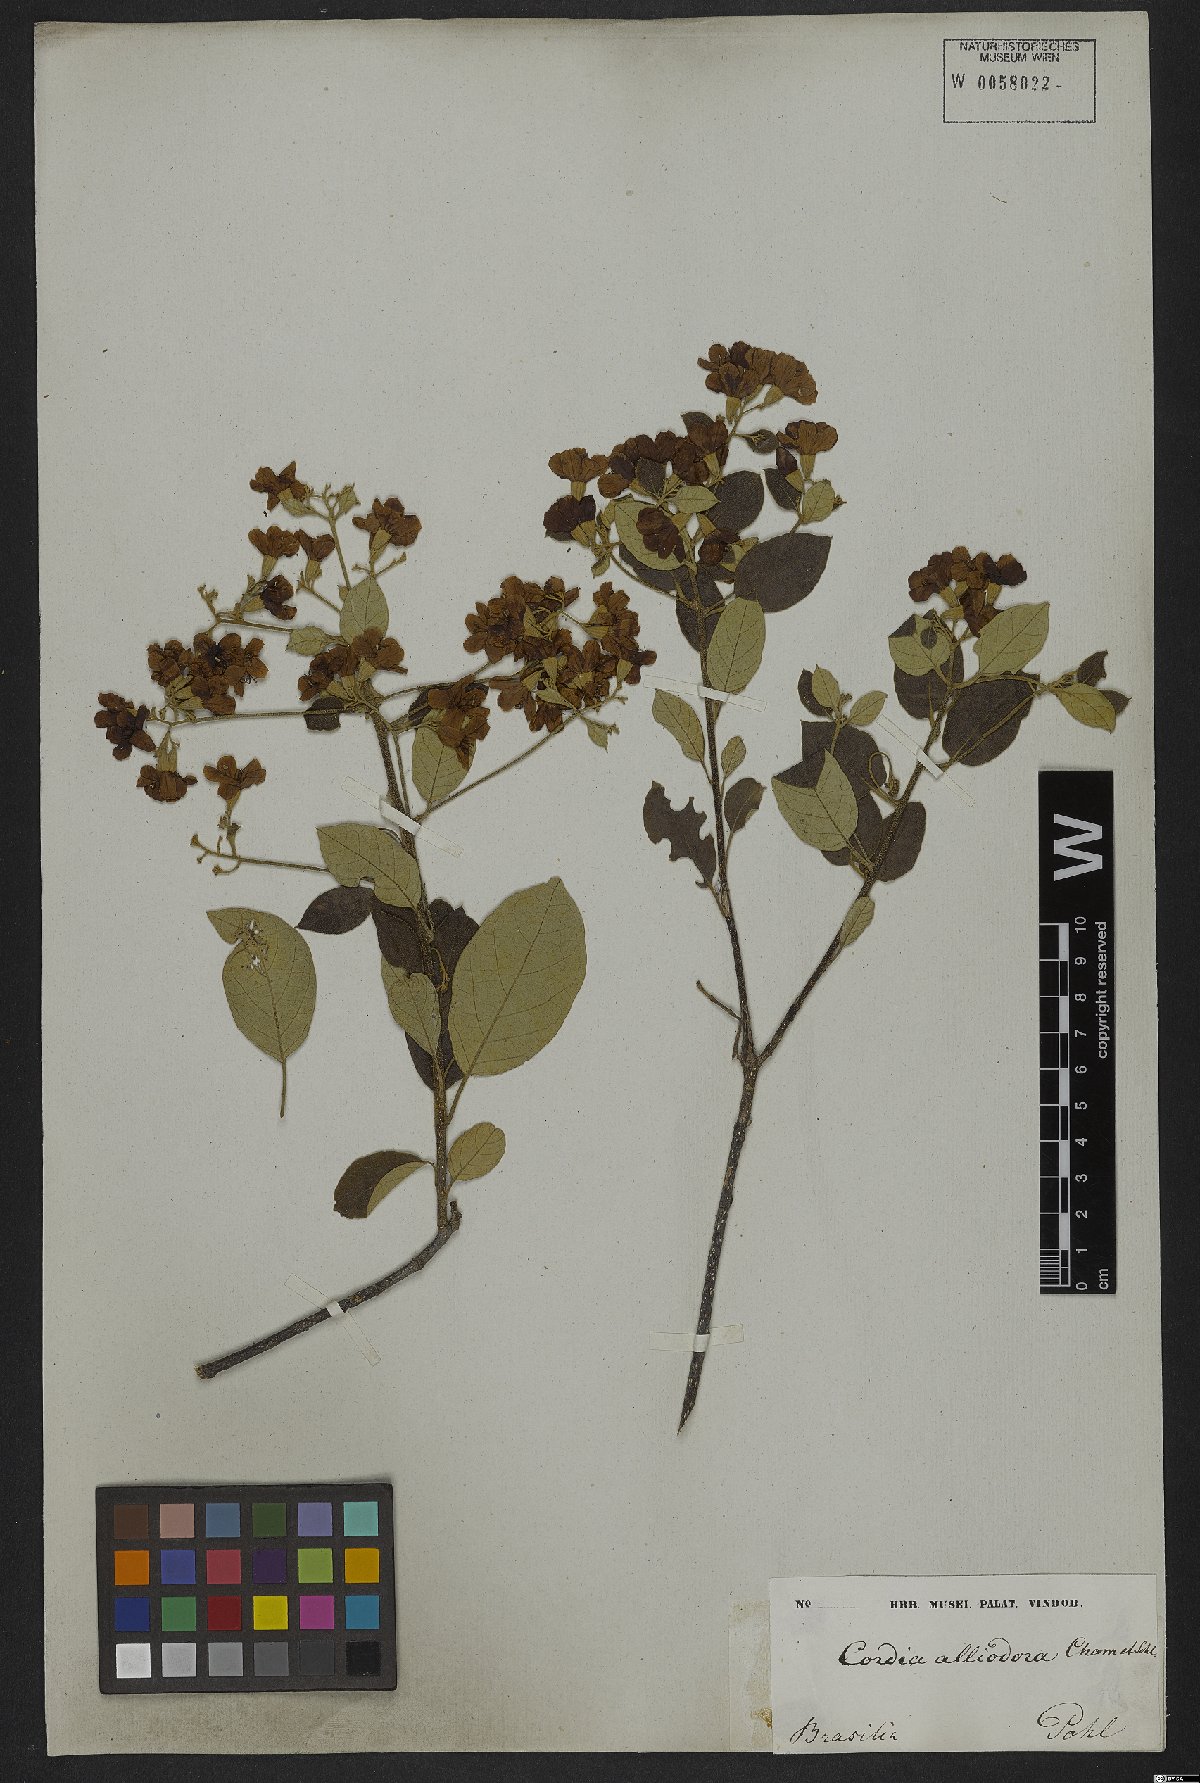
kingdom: Plantae
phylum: Tracheophyta
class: Magnoliopsida
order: Boraginales
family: Cordiaceae
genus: Cordia
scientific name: Cordia alliodora
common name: Spanish elm
